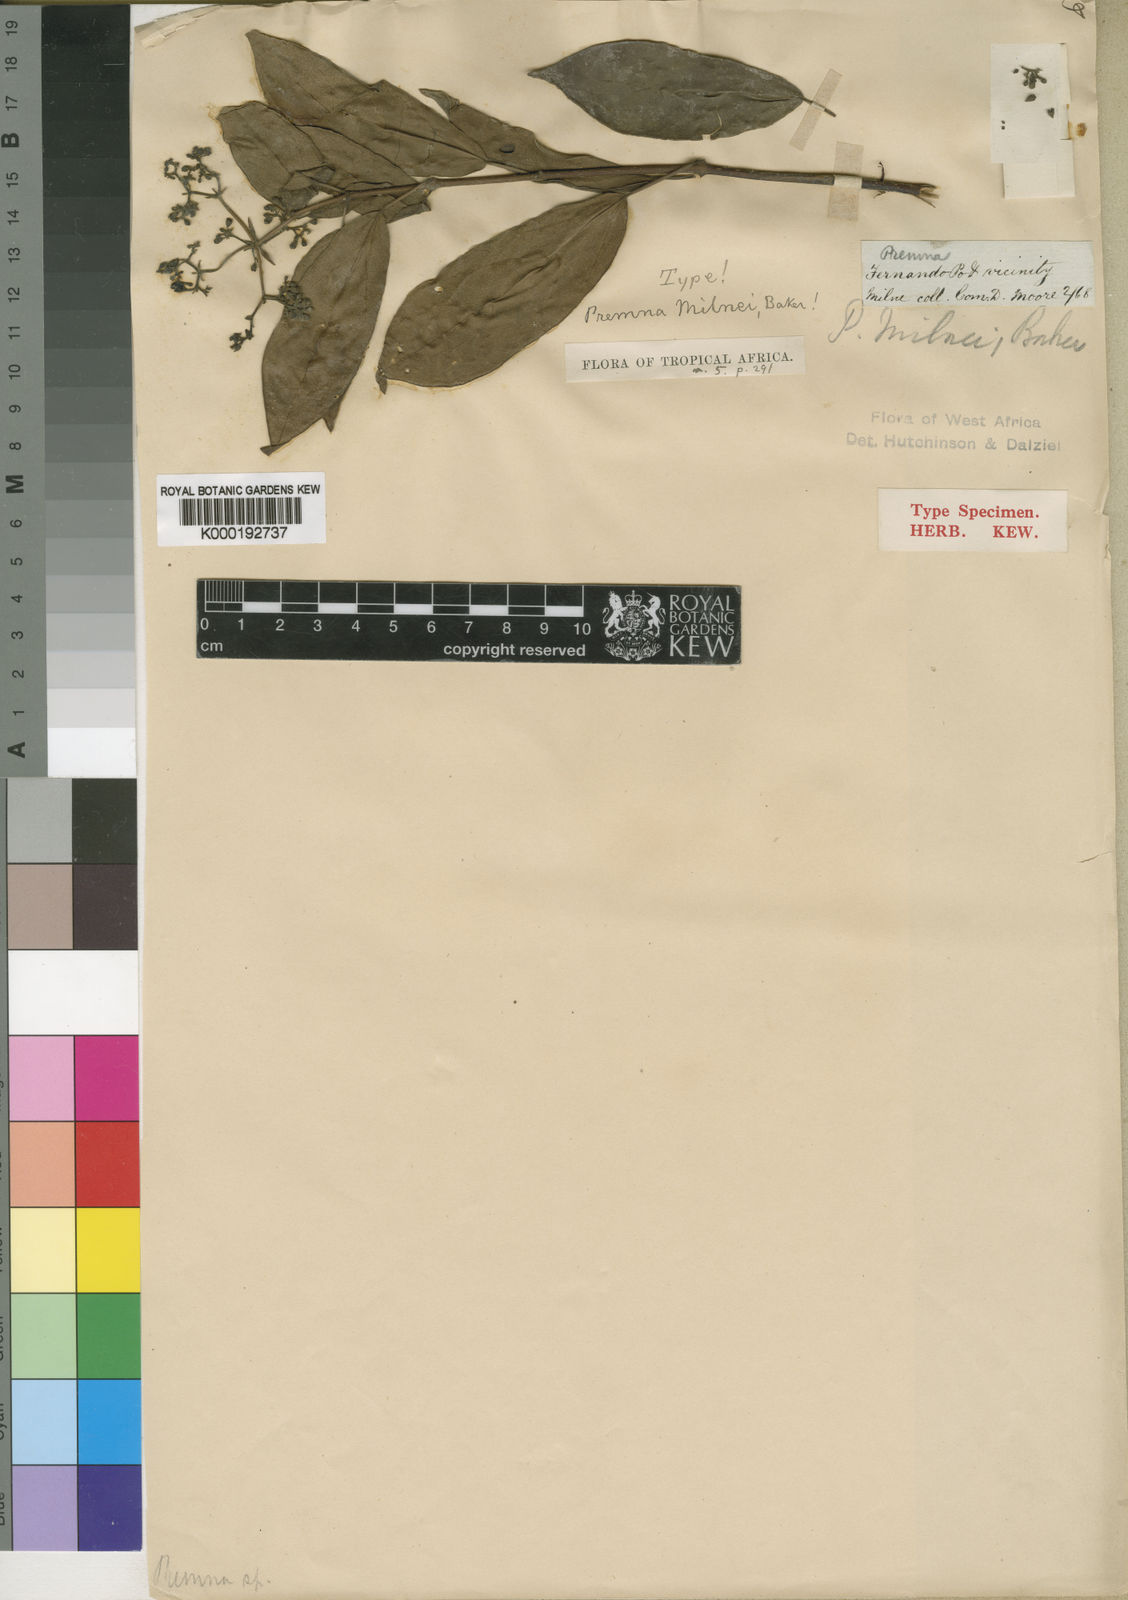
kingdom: Plantae
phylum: Tracheophyta
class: Magnoliopsida
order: Lamiales
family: Lamiaceae
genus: Premna
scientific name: Premna milnei
